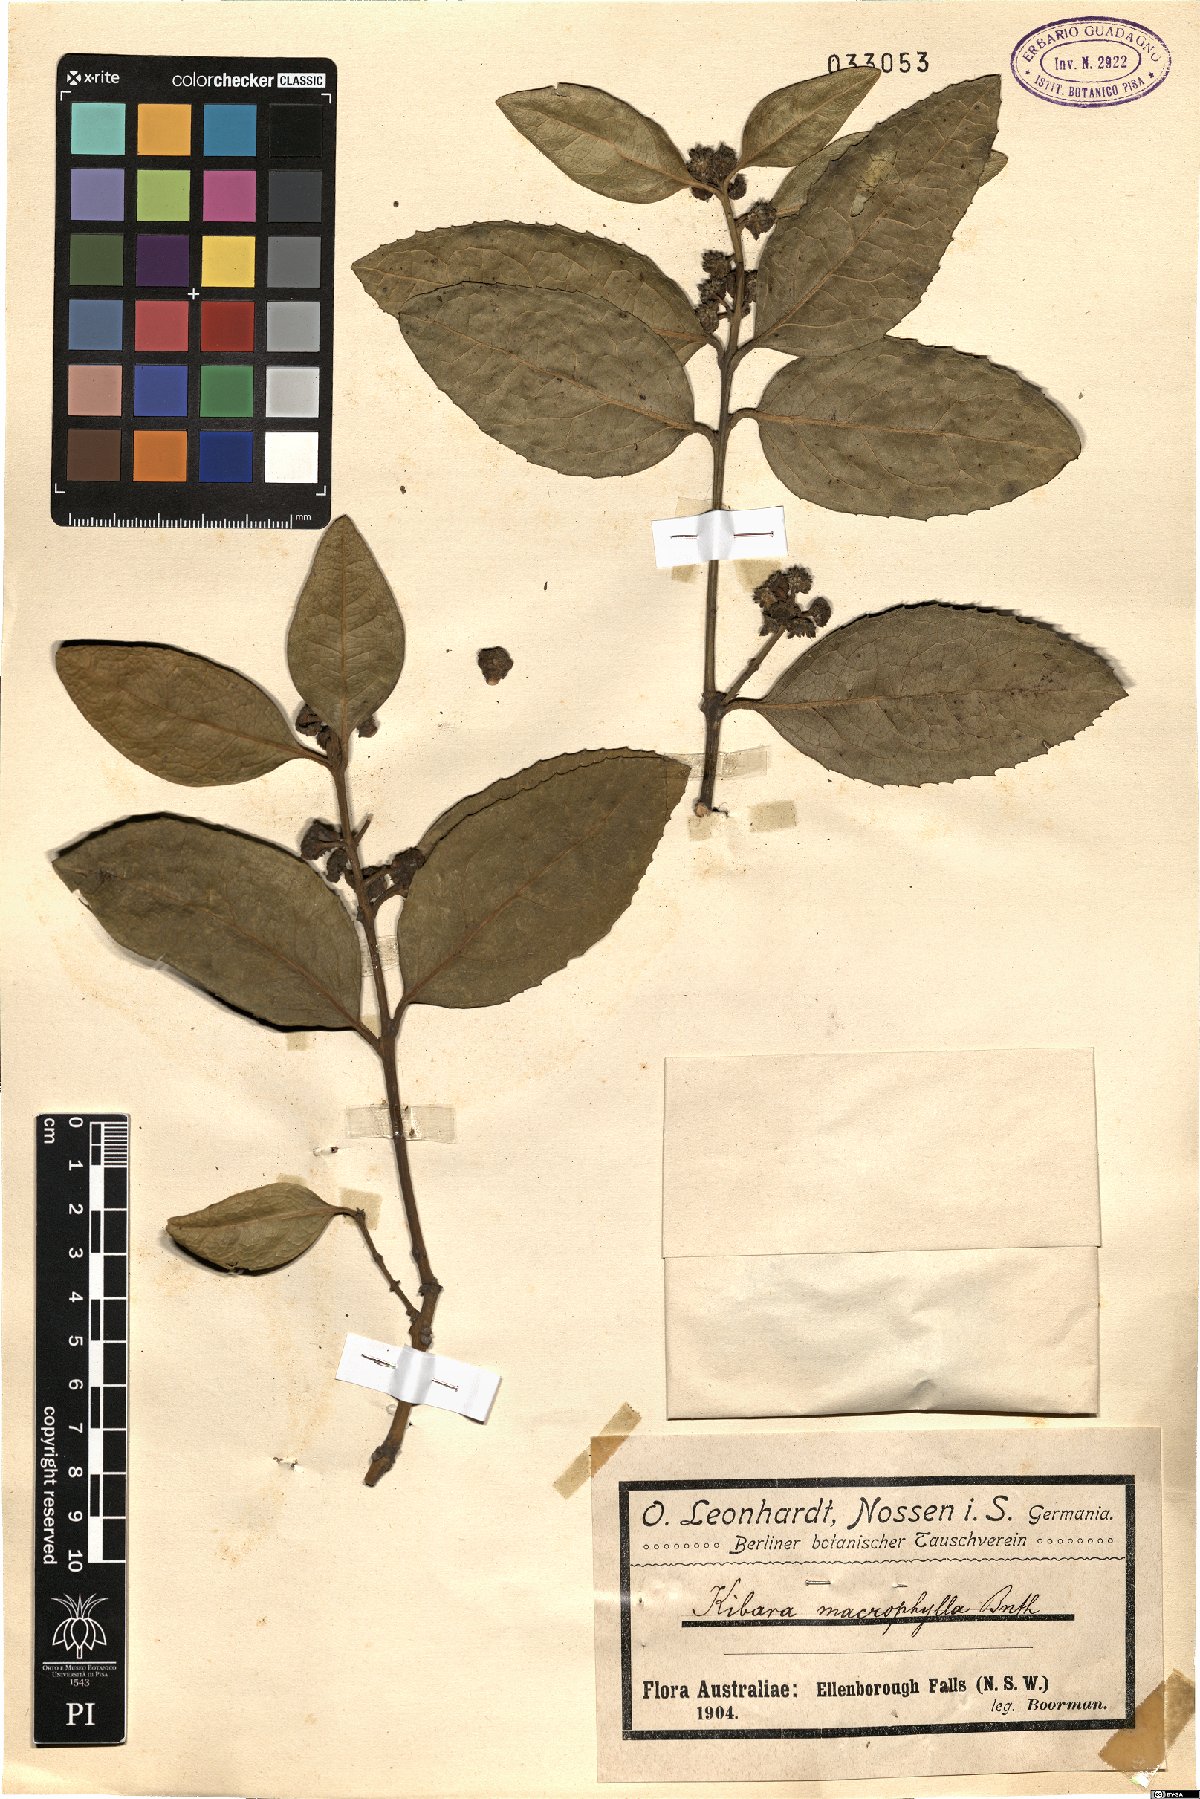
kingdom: Plantae
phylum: Tracheophyta
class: Magnoliopsida
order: Laurales
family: Monimiaceae
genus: Wilkiea
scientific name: Wilkiea macrophylla
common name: Large-leaved wilkiea
